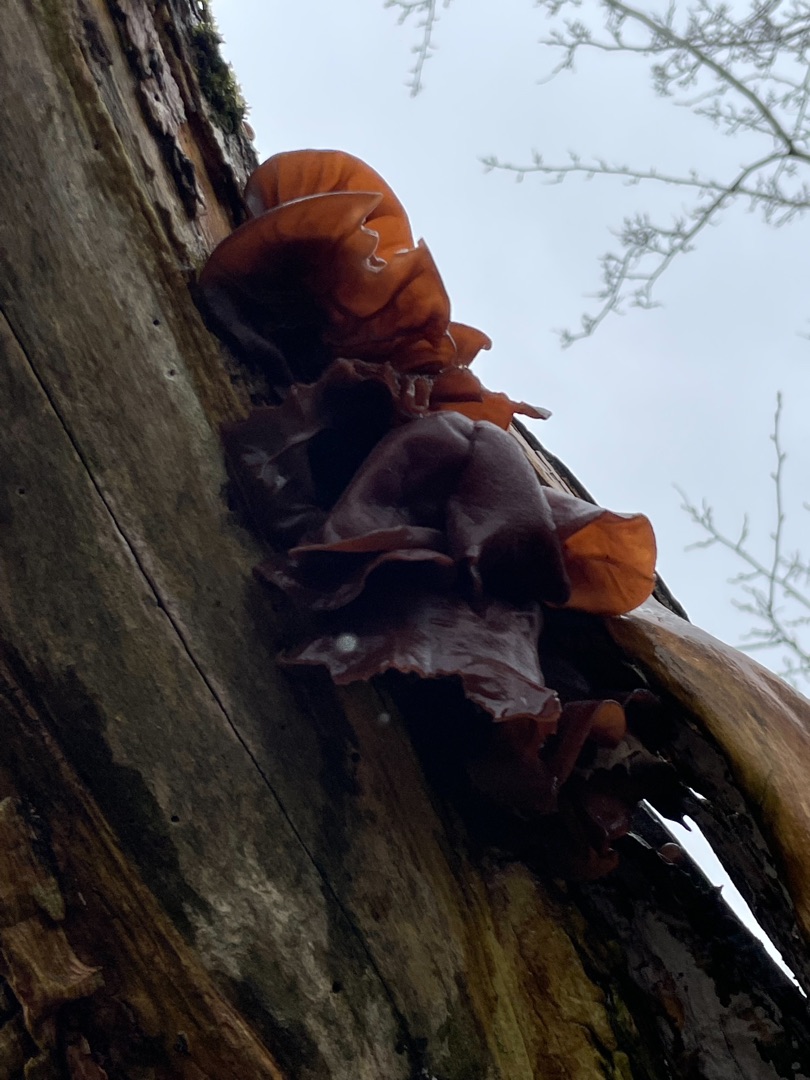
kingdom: Fungi
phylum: Basidiomycota
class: Agaricomycetes
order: Auriculariales
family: Auriculariaceae
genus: Auricularia
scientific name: Auricularia auricula-judae
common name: Almindelig judasøre
